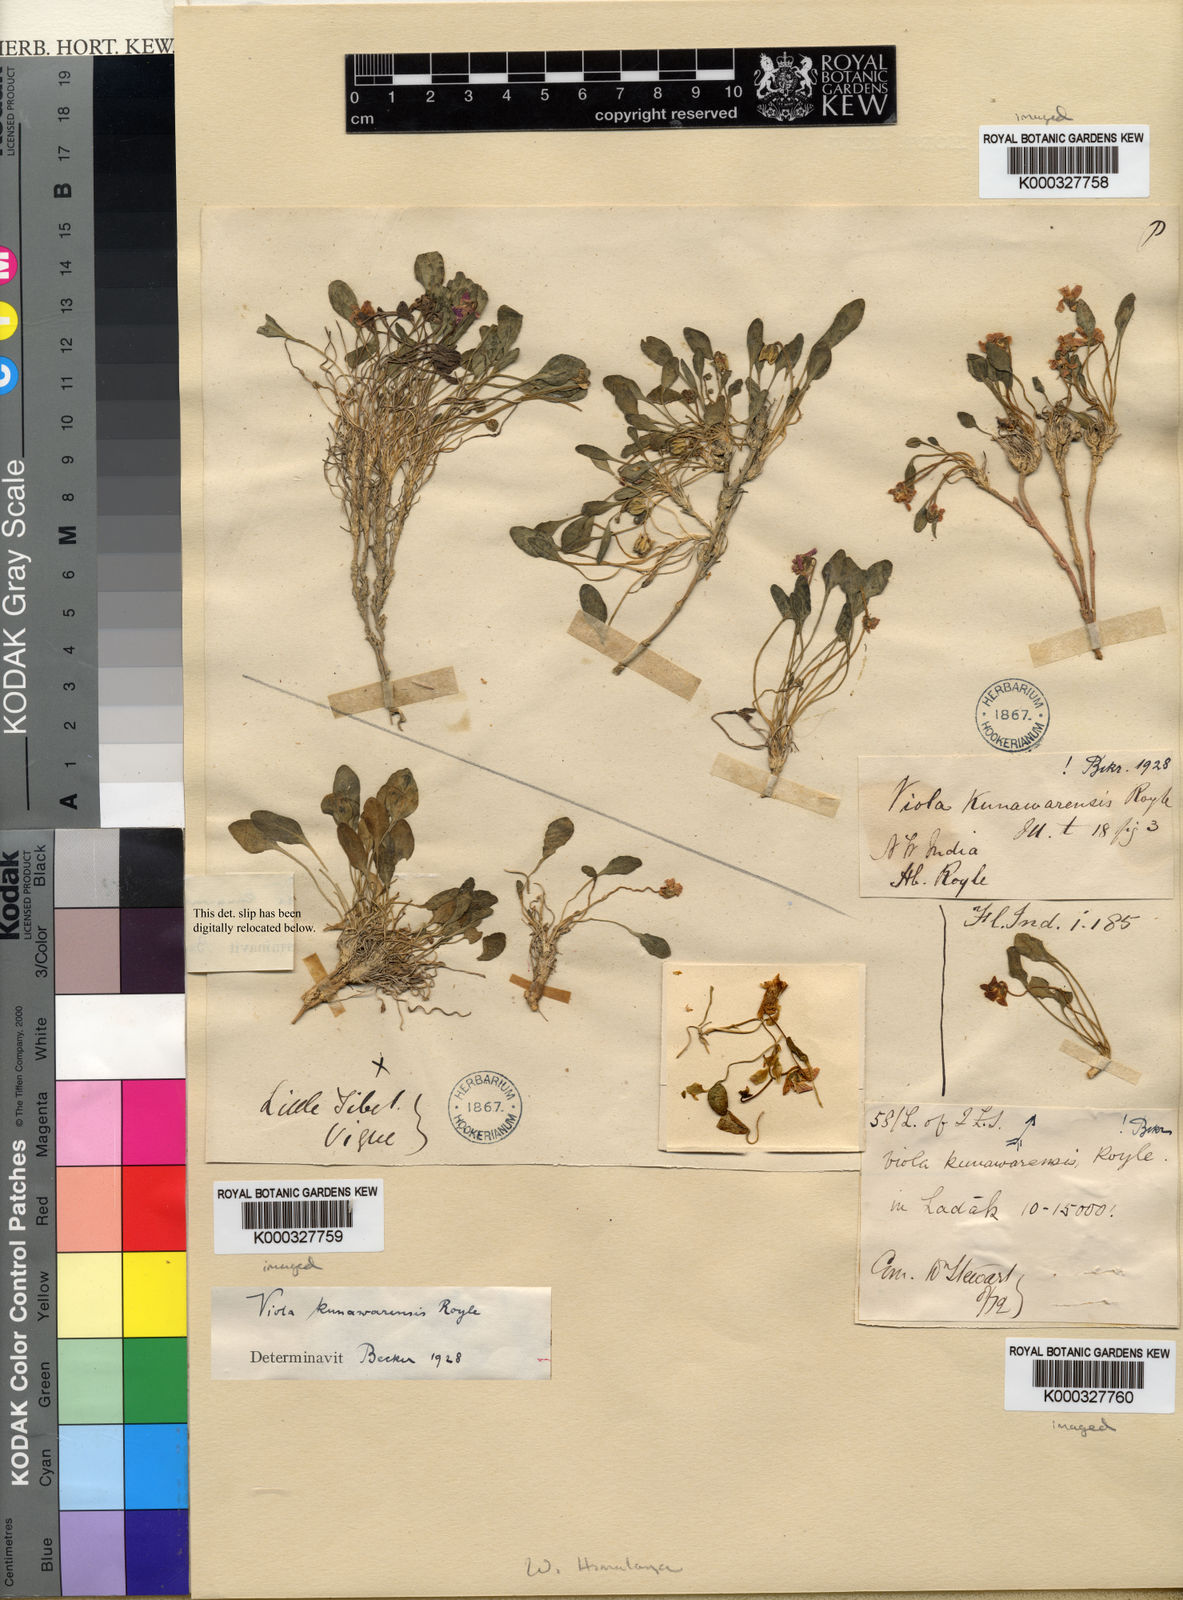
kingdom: Plantae
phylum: Tracheophyta
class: Magnoliopsida
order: Malpighiales
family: Violaceae
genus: Viola
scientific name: Viola
